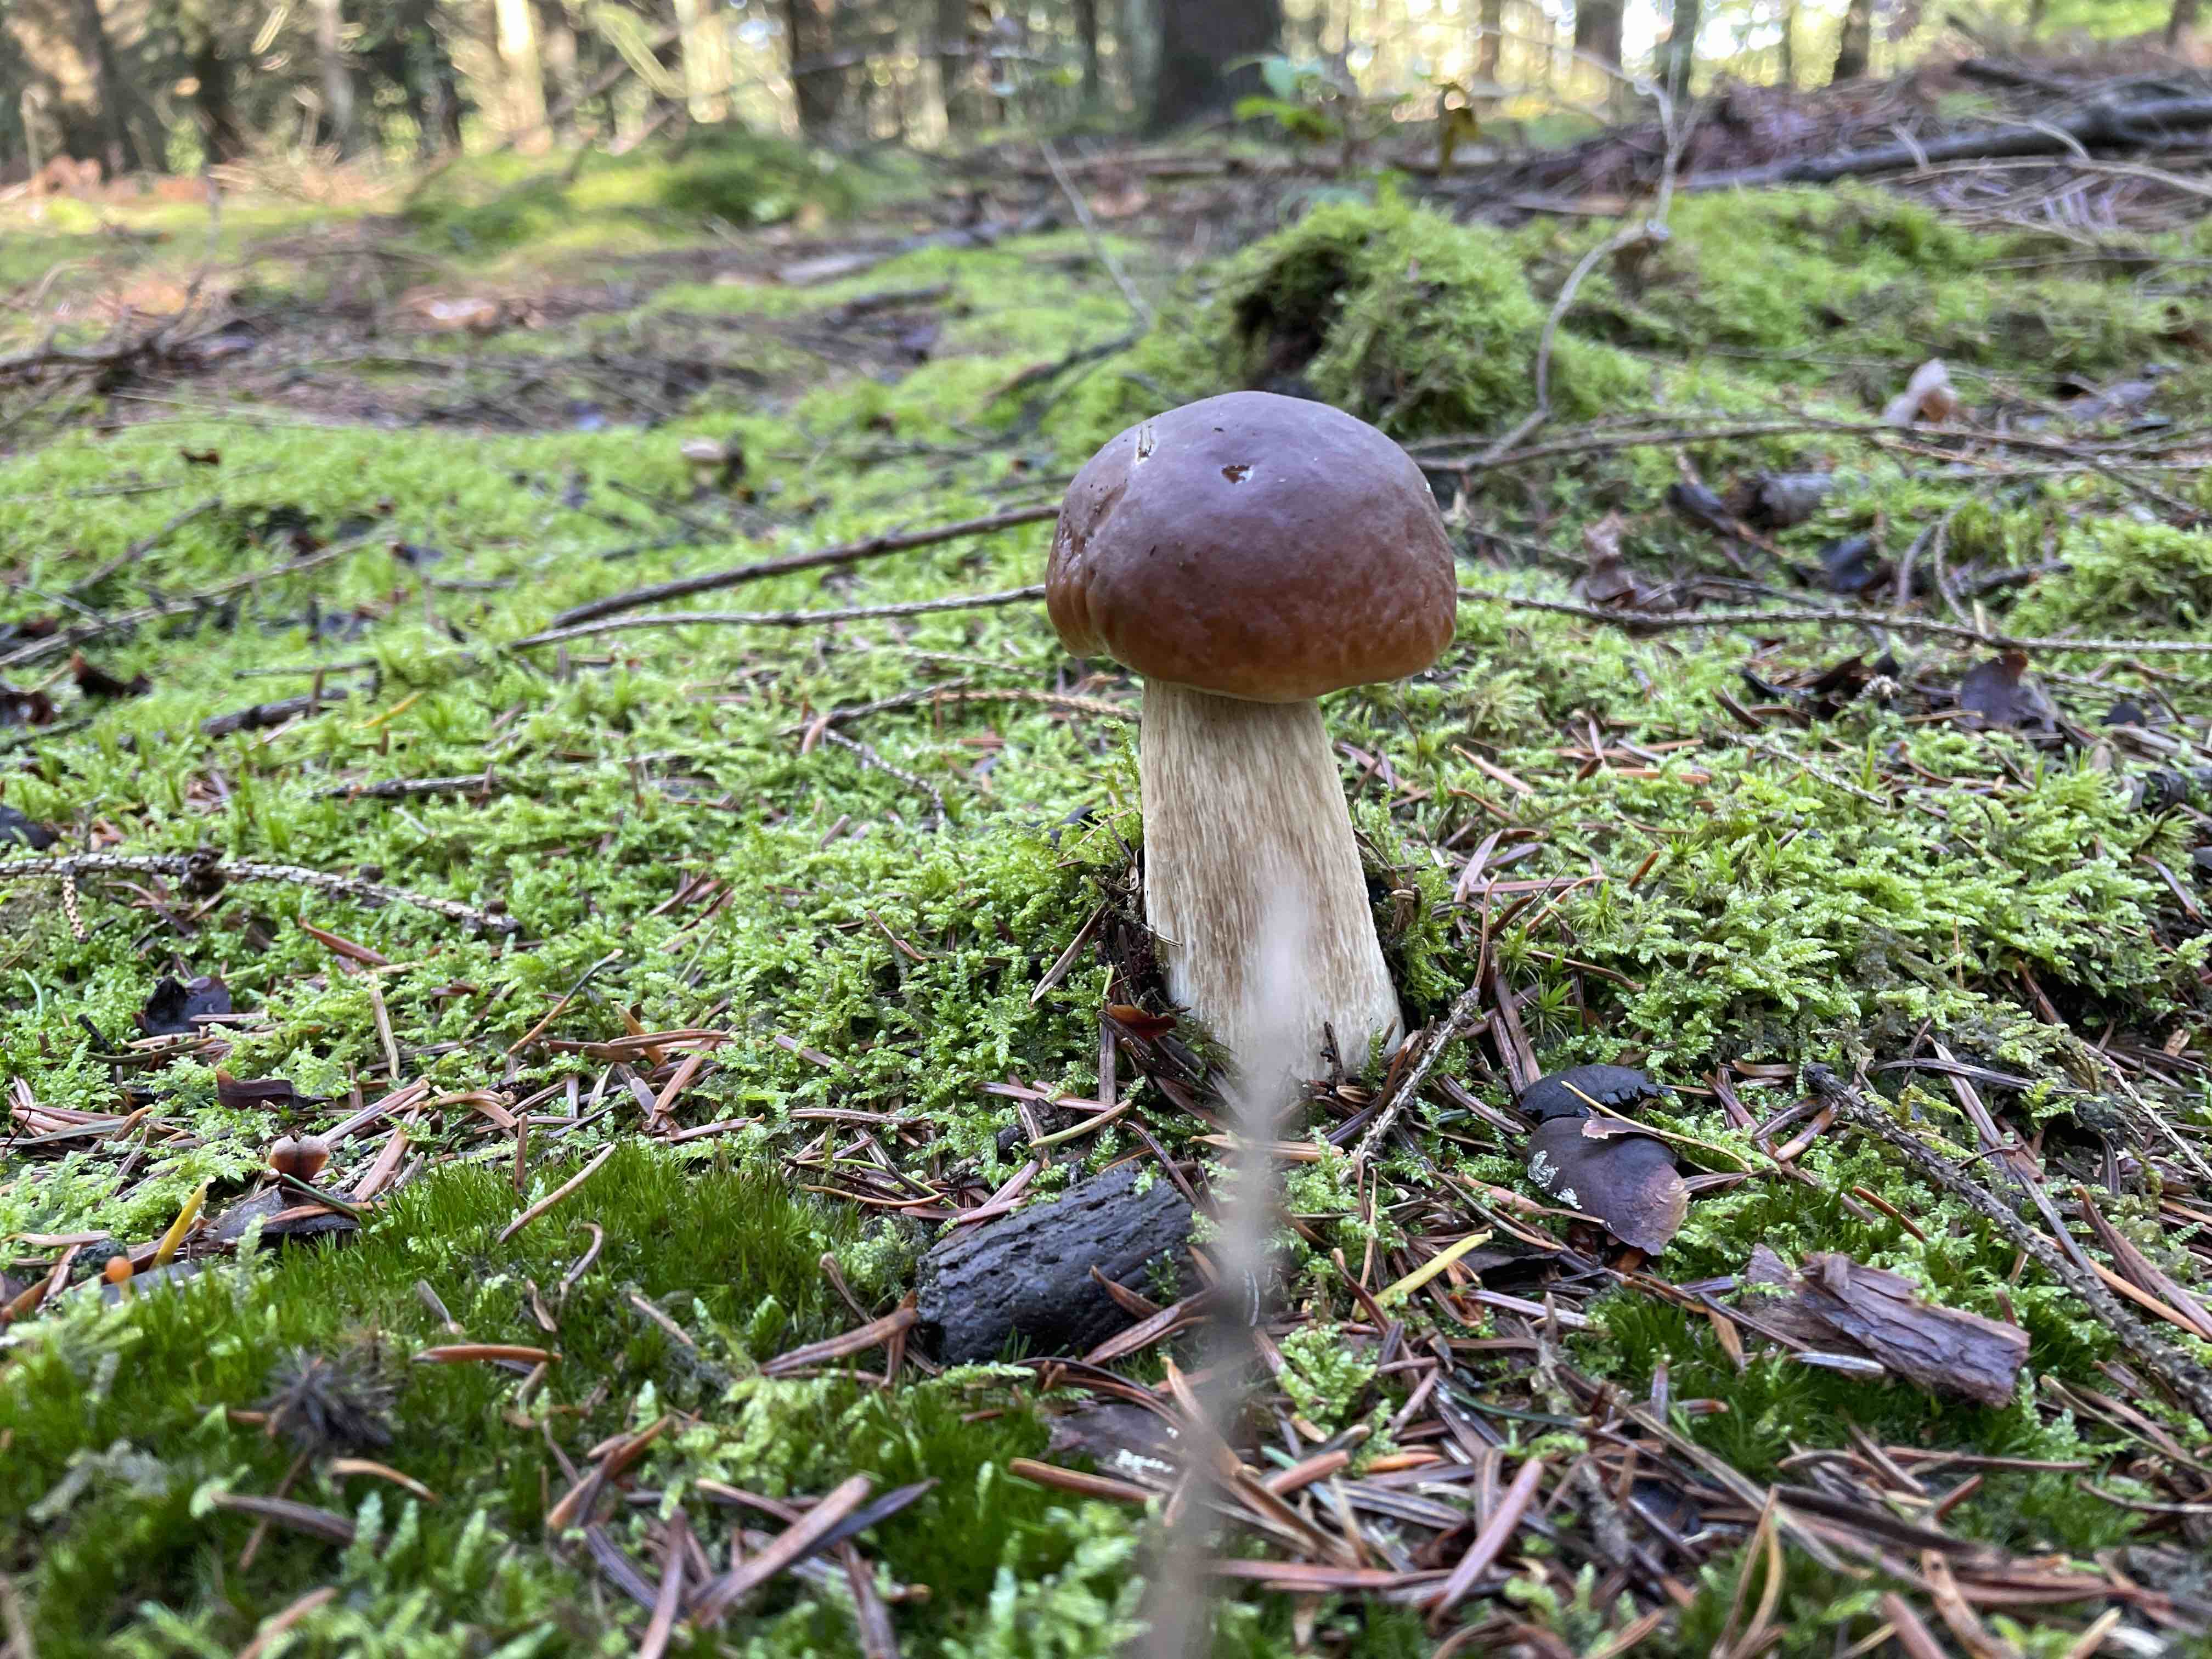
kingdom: Fungi
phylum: Basidiomycota
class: Agaricomycetes
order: Boletales
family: Boletaceae
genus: Boletus
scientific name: Boletus edulis
